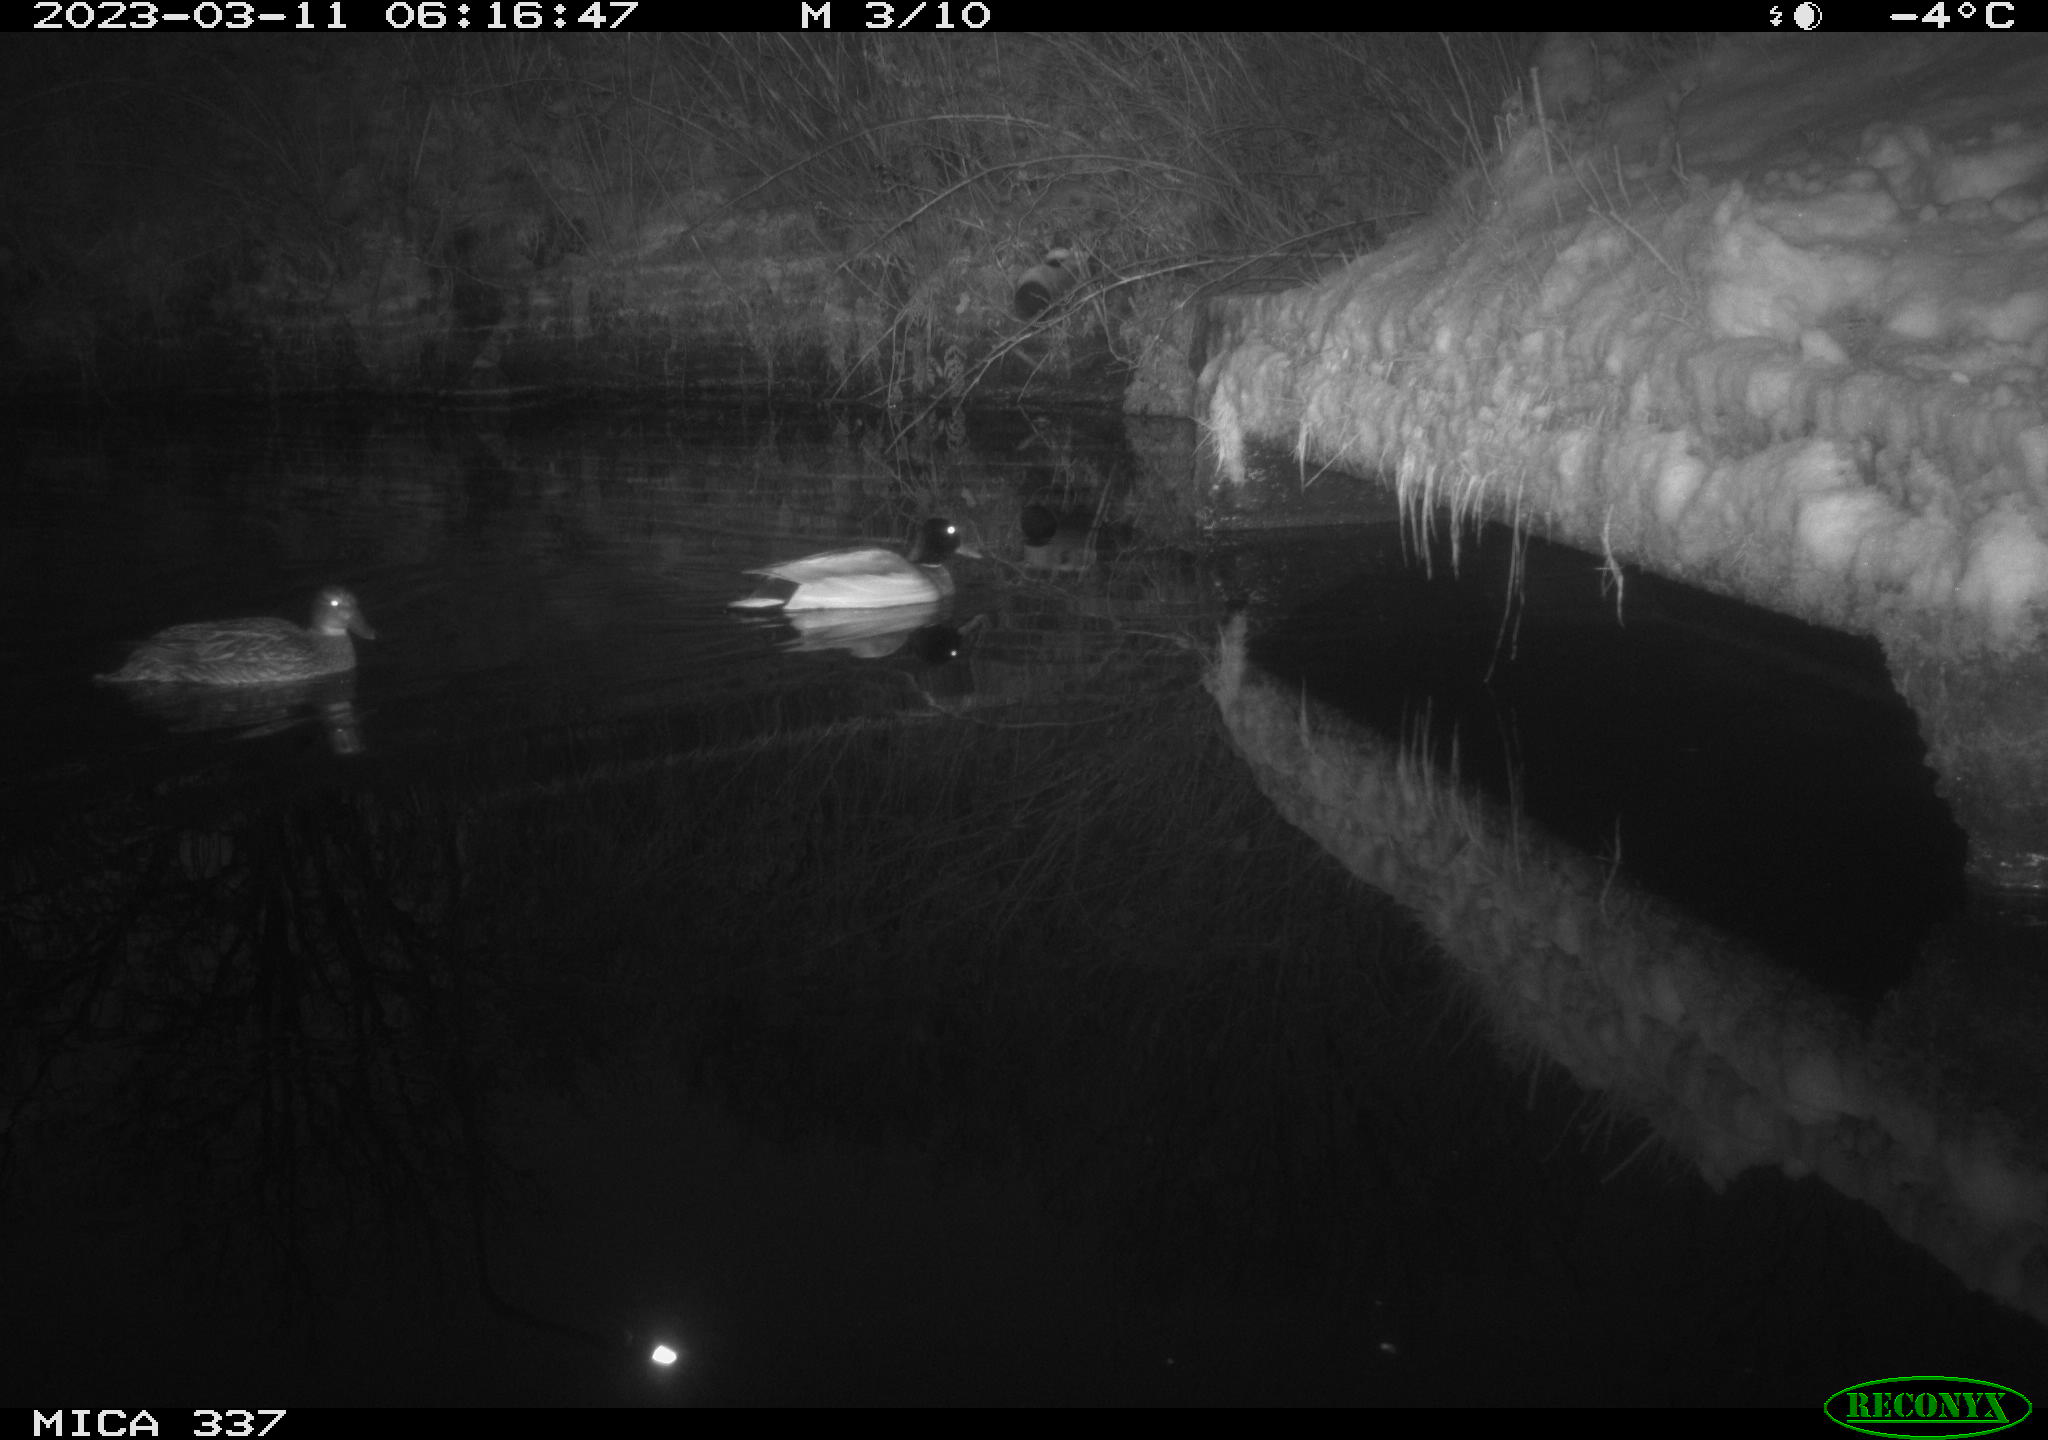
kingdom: Animalia
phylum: Chordata
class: Aves
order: Anseriformes
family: Anatidae
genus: Anas
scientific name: Anas
